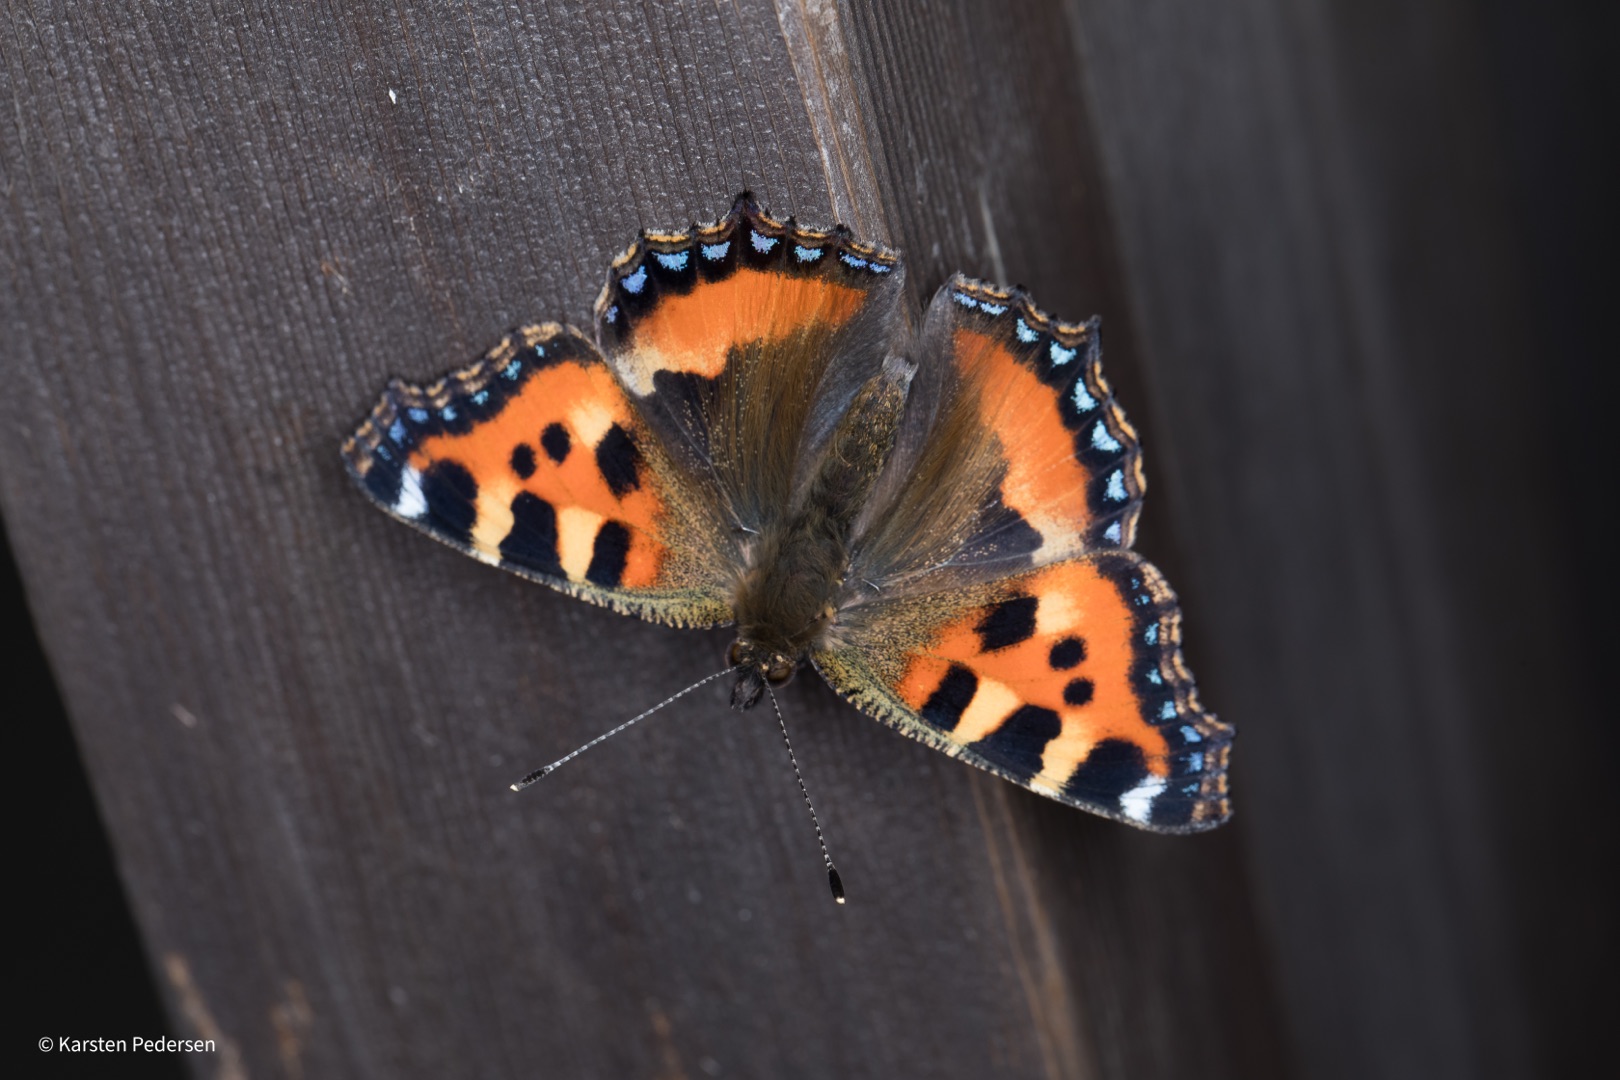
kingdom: Animalia
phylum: Arthropoda
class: Insecta
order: Lepidoptera
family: Nymphalidae
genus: Aglais
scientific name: Aglais urticae
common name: Nældens takvinge
